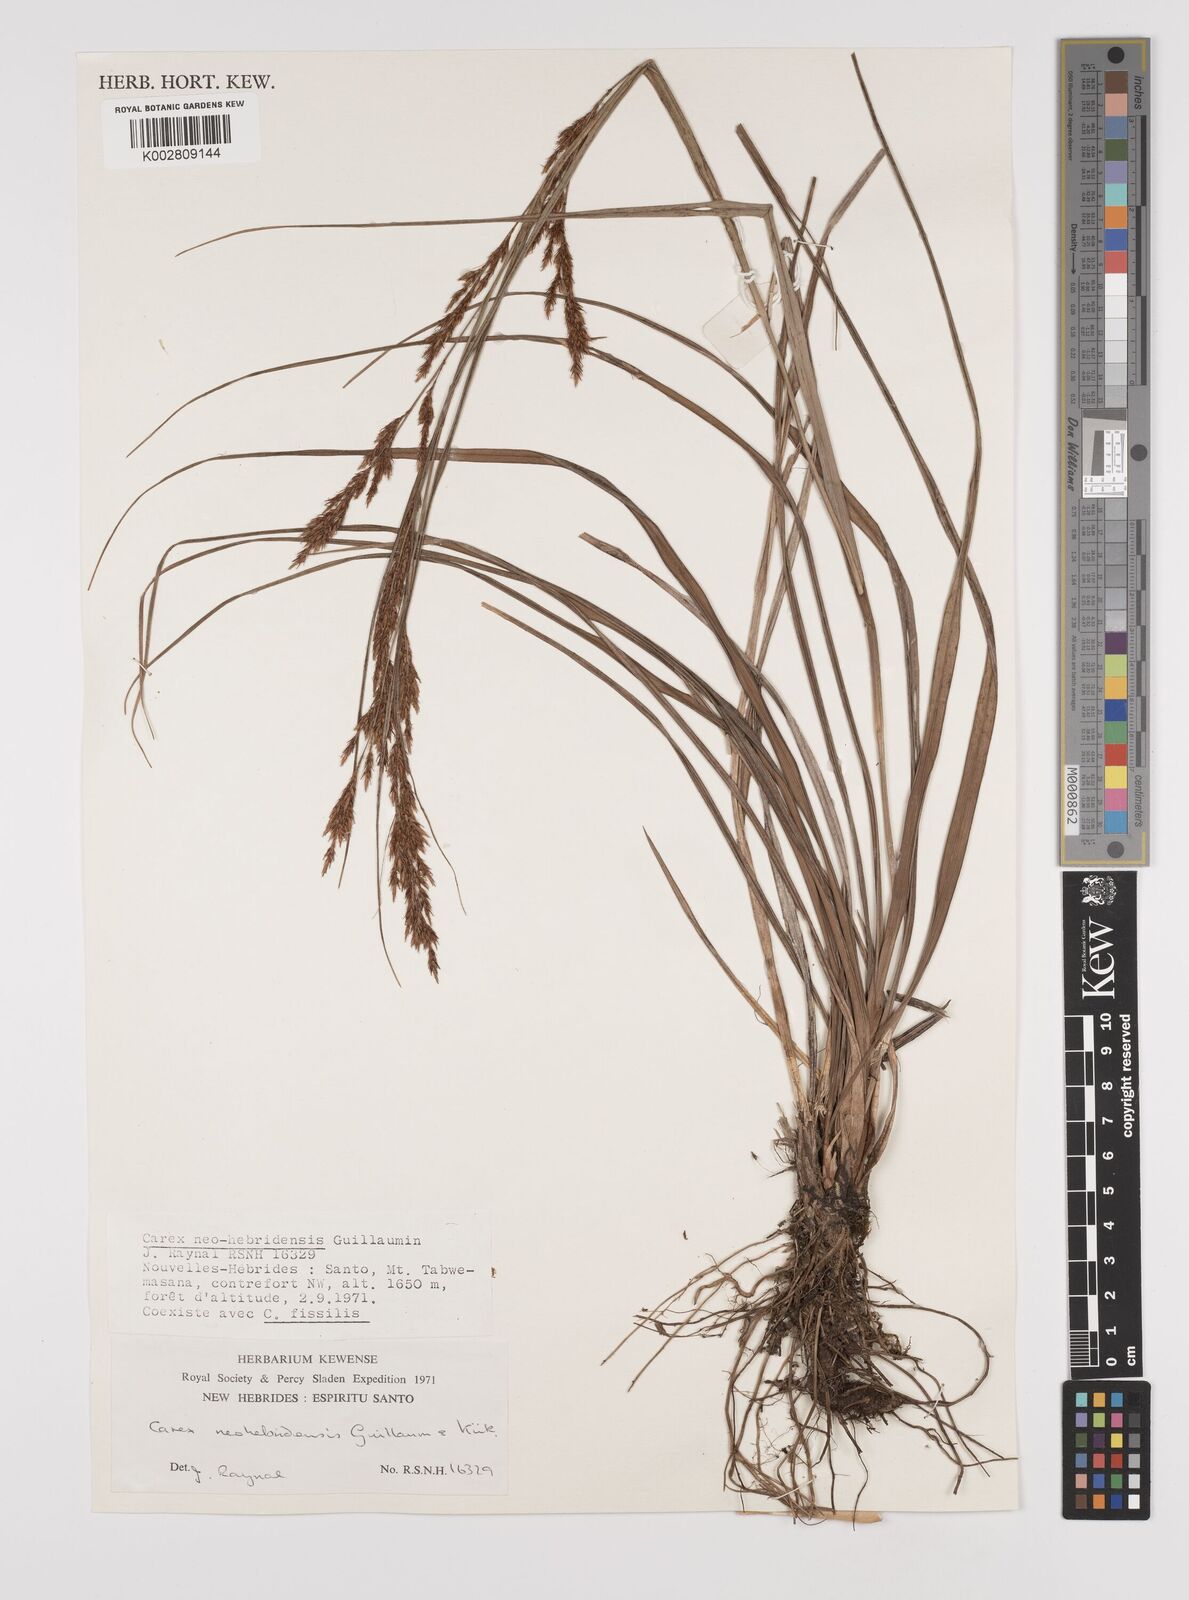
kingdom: Plantae
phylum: Tracheophyta
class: Liliopsida
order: Poales
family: Cyperaceae
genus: Carex
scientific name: Carex neohebridensis
